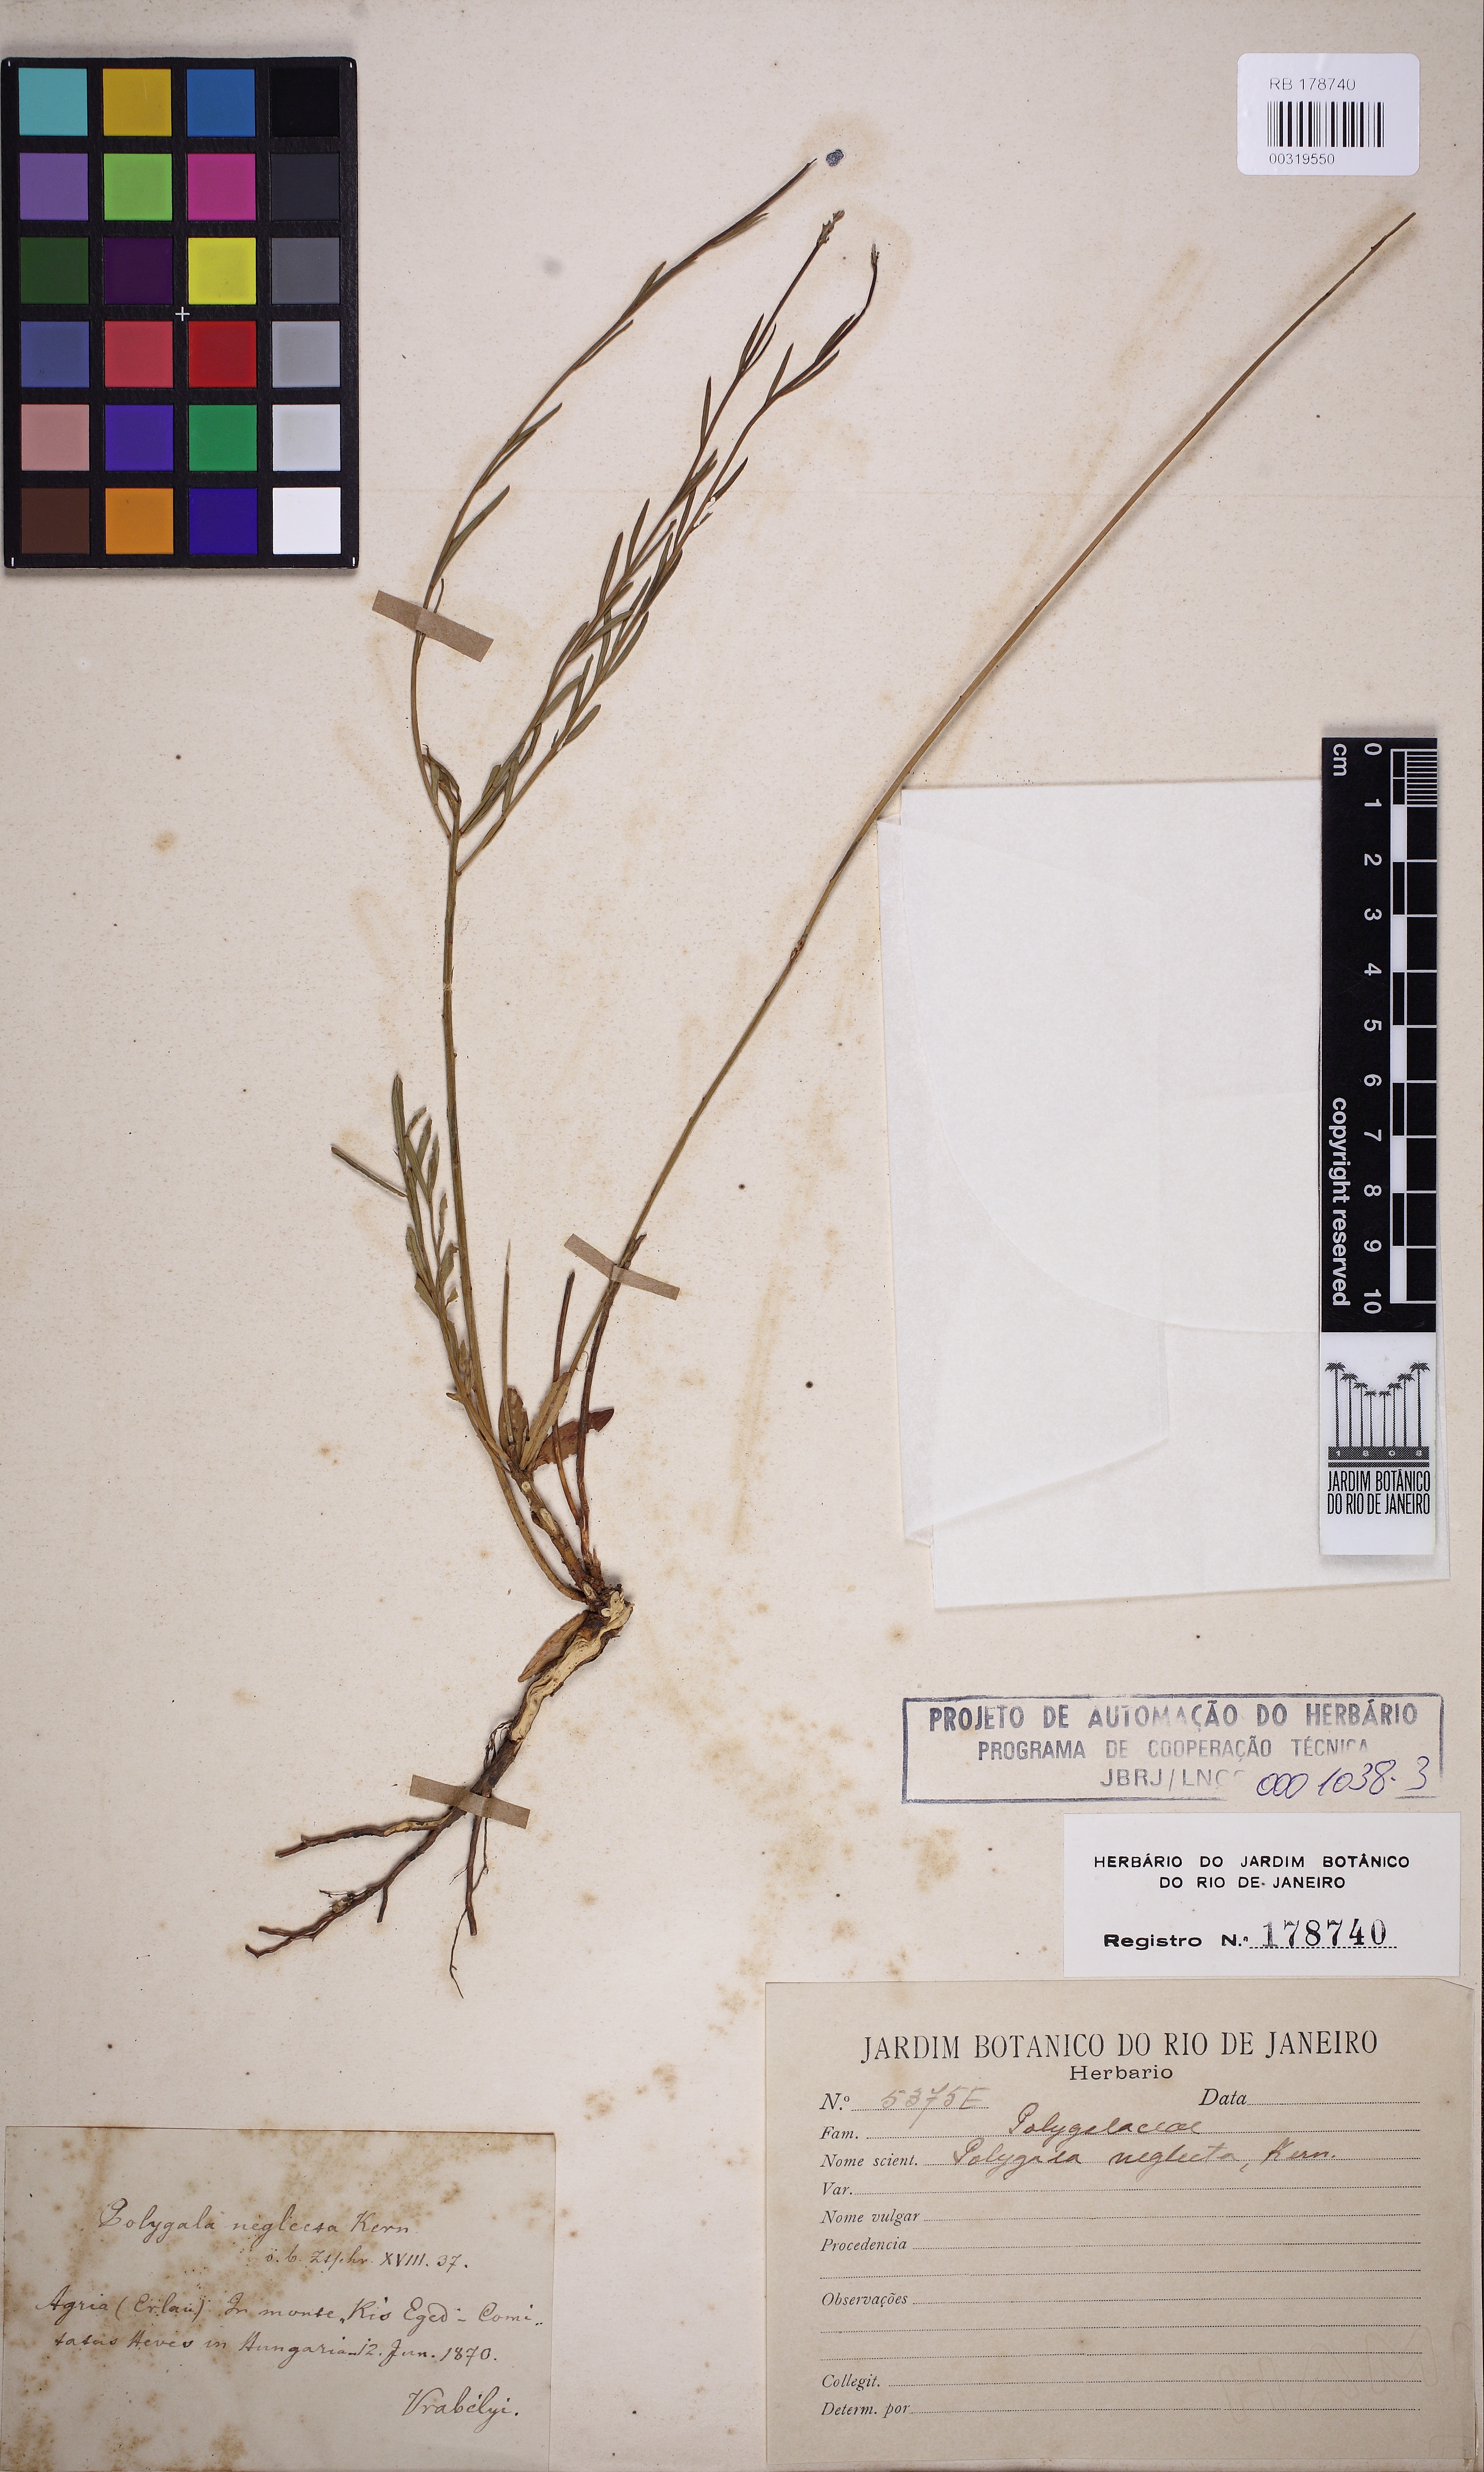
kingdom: Plantae
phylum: Tracheophyta
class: Magnoliopsida
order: Fabales
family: Polygalaceae
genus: Polygala
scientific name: Polygala major
